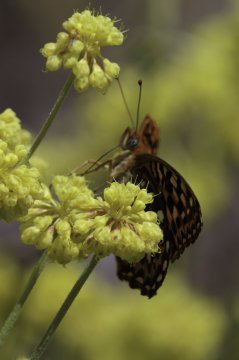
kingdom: Animalia
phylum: Arthropoda
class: Insecta
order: Lepidoptera
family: Nymphalidae
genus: Speyeria
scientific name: Speyeria
